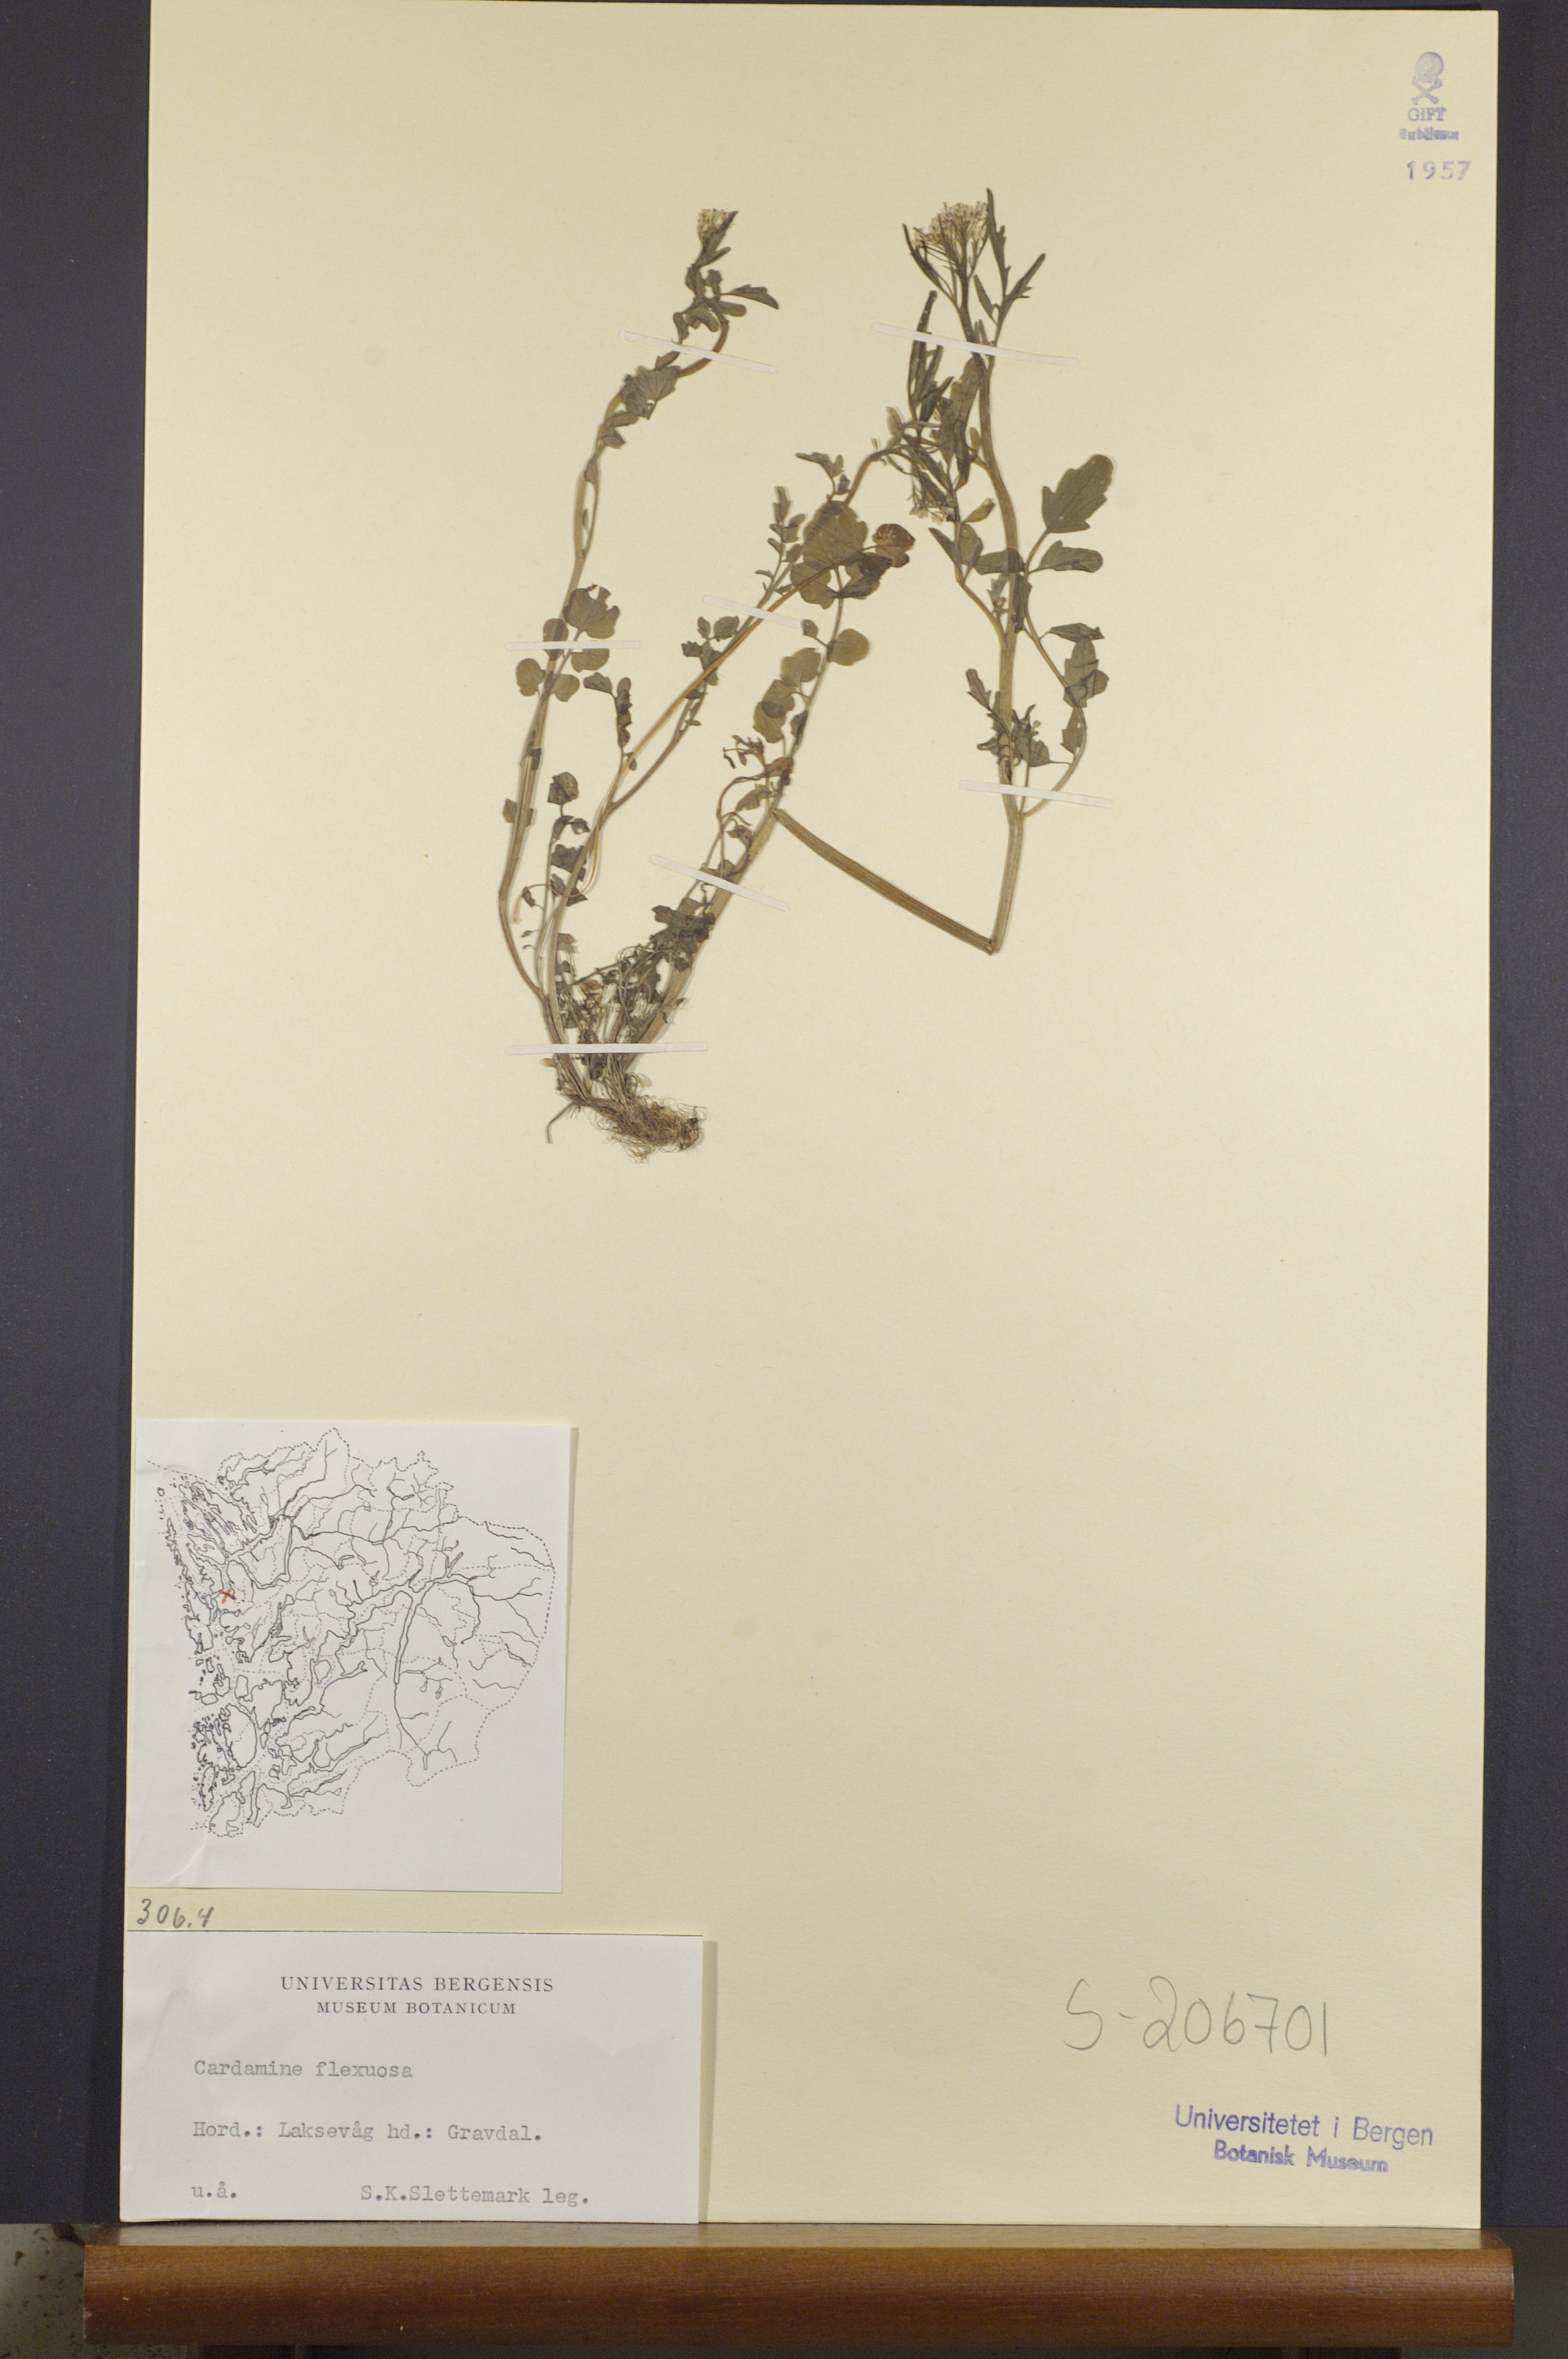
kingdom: Plantae
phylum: Tracheophyta
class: Magnoliopsida
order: Brassicales
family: Brassicaceae
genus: Cardamine
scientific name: Cardamine flexuosa
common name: Woodland bittercress
